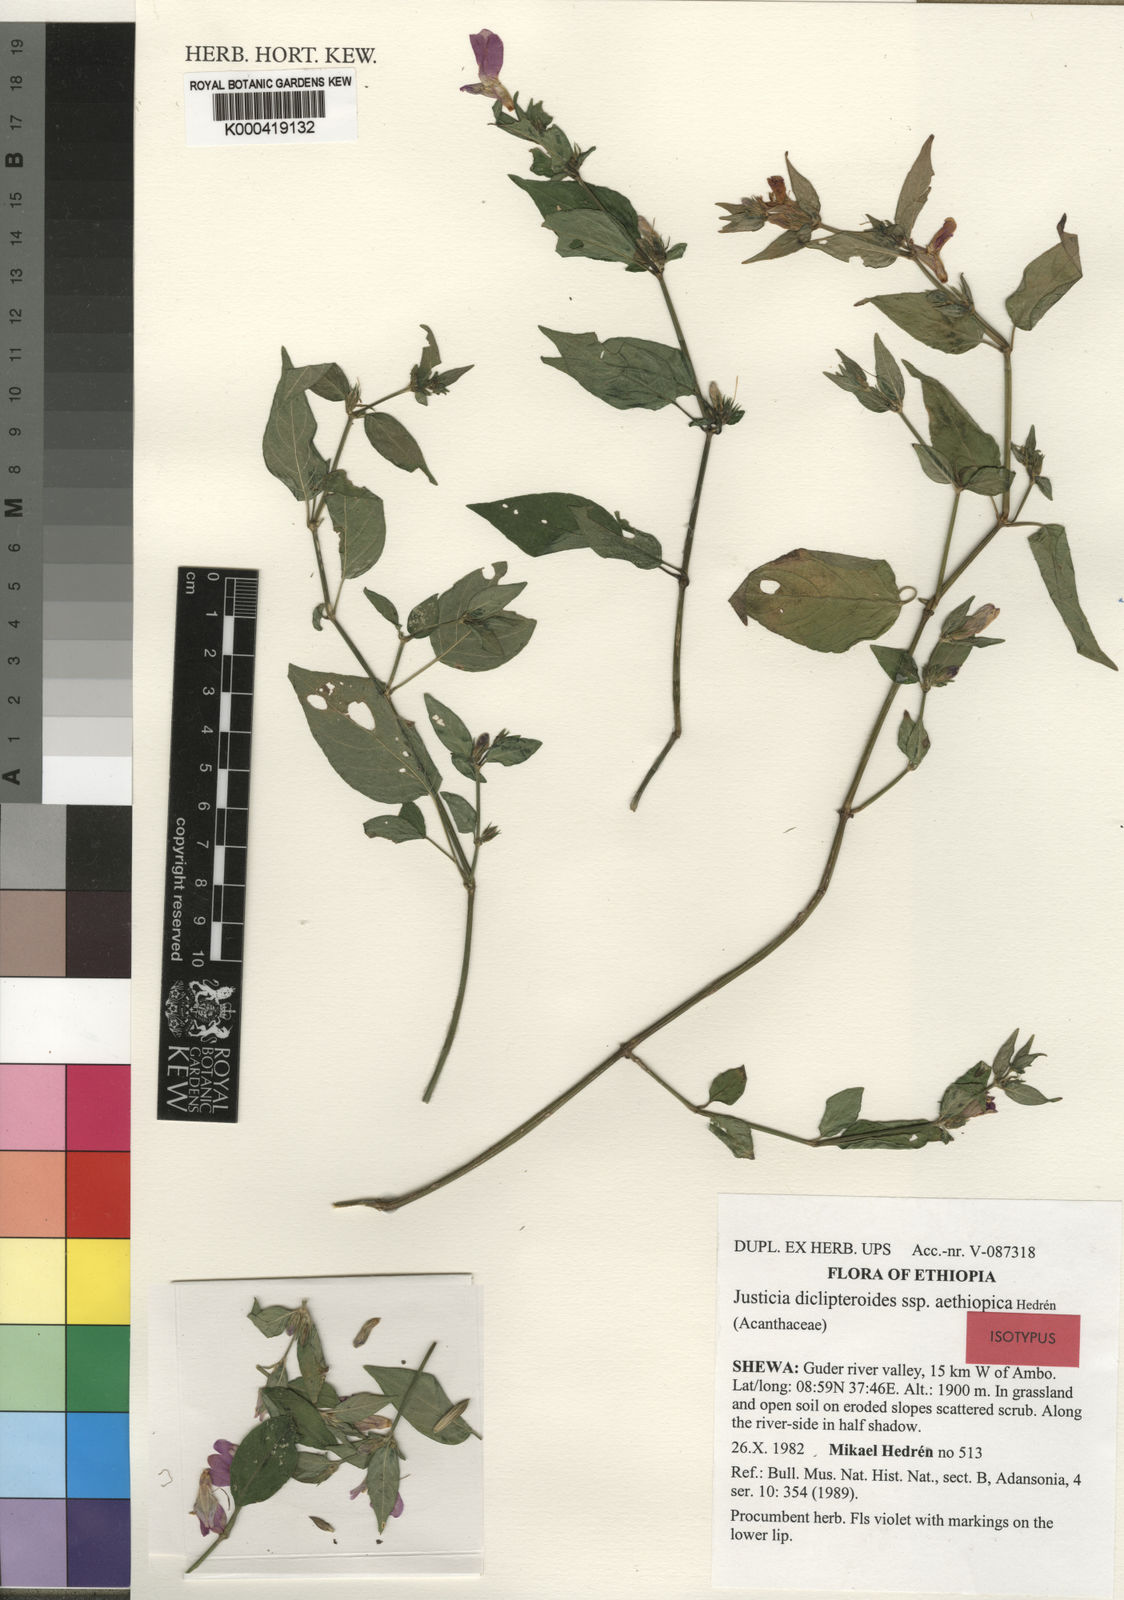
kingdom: Plantae
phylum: Tracheophyta
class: Magnoliopsida
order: Lamiales
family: Acanthaceae
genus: Justicia
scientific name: Justicia diclipteroides
